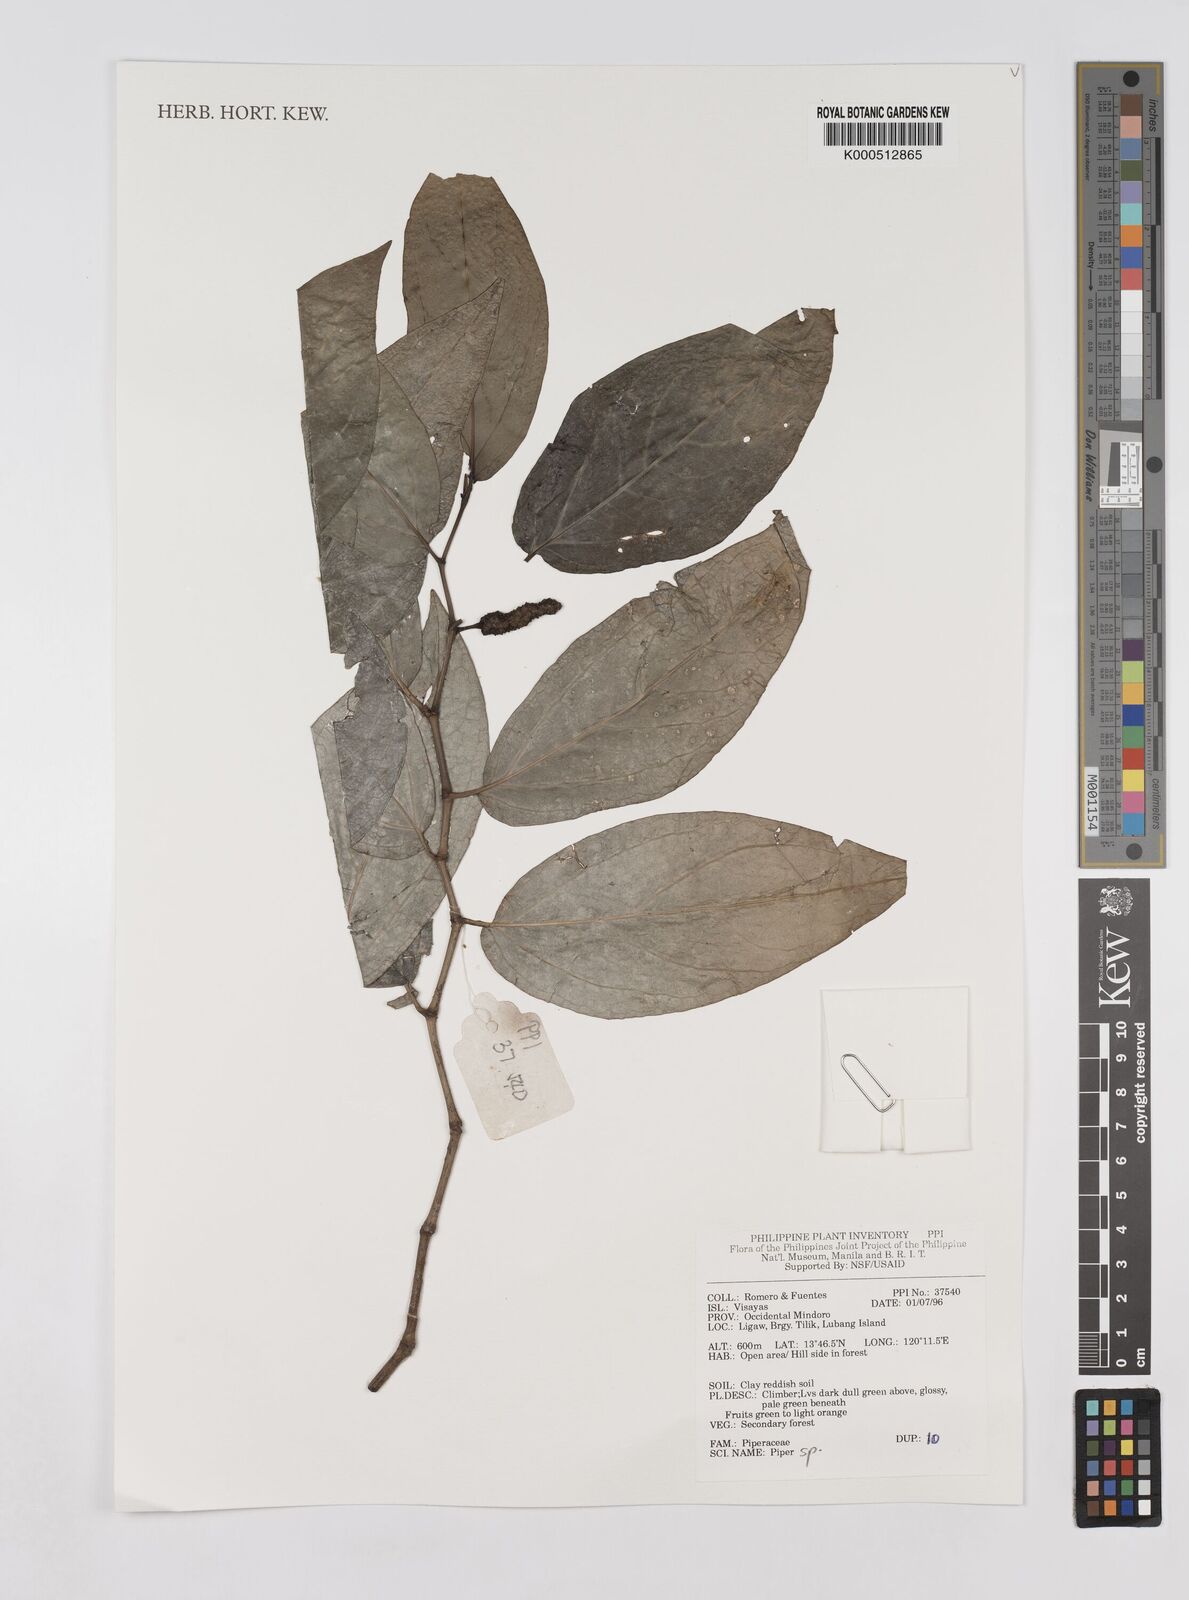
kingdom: Plantae
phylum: Tracheophyta
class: Magnoliopsida
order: Piperales
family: Piperaceae
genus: Piper
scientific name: Piper
